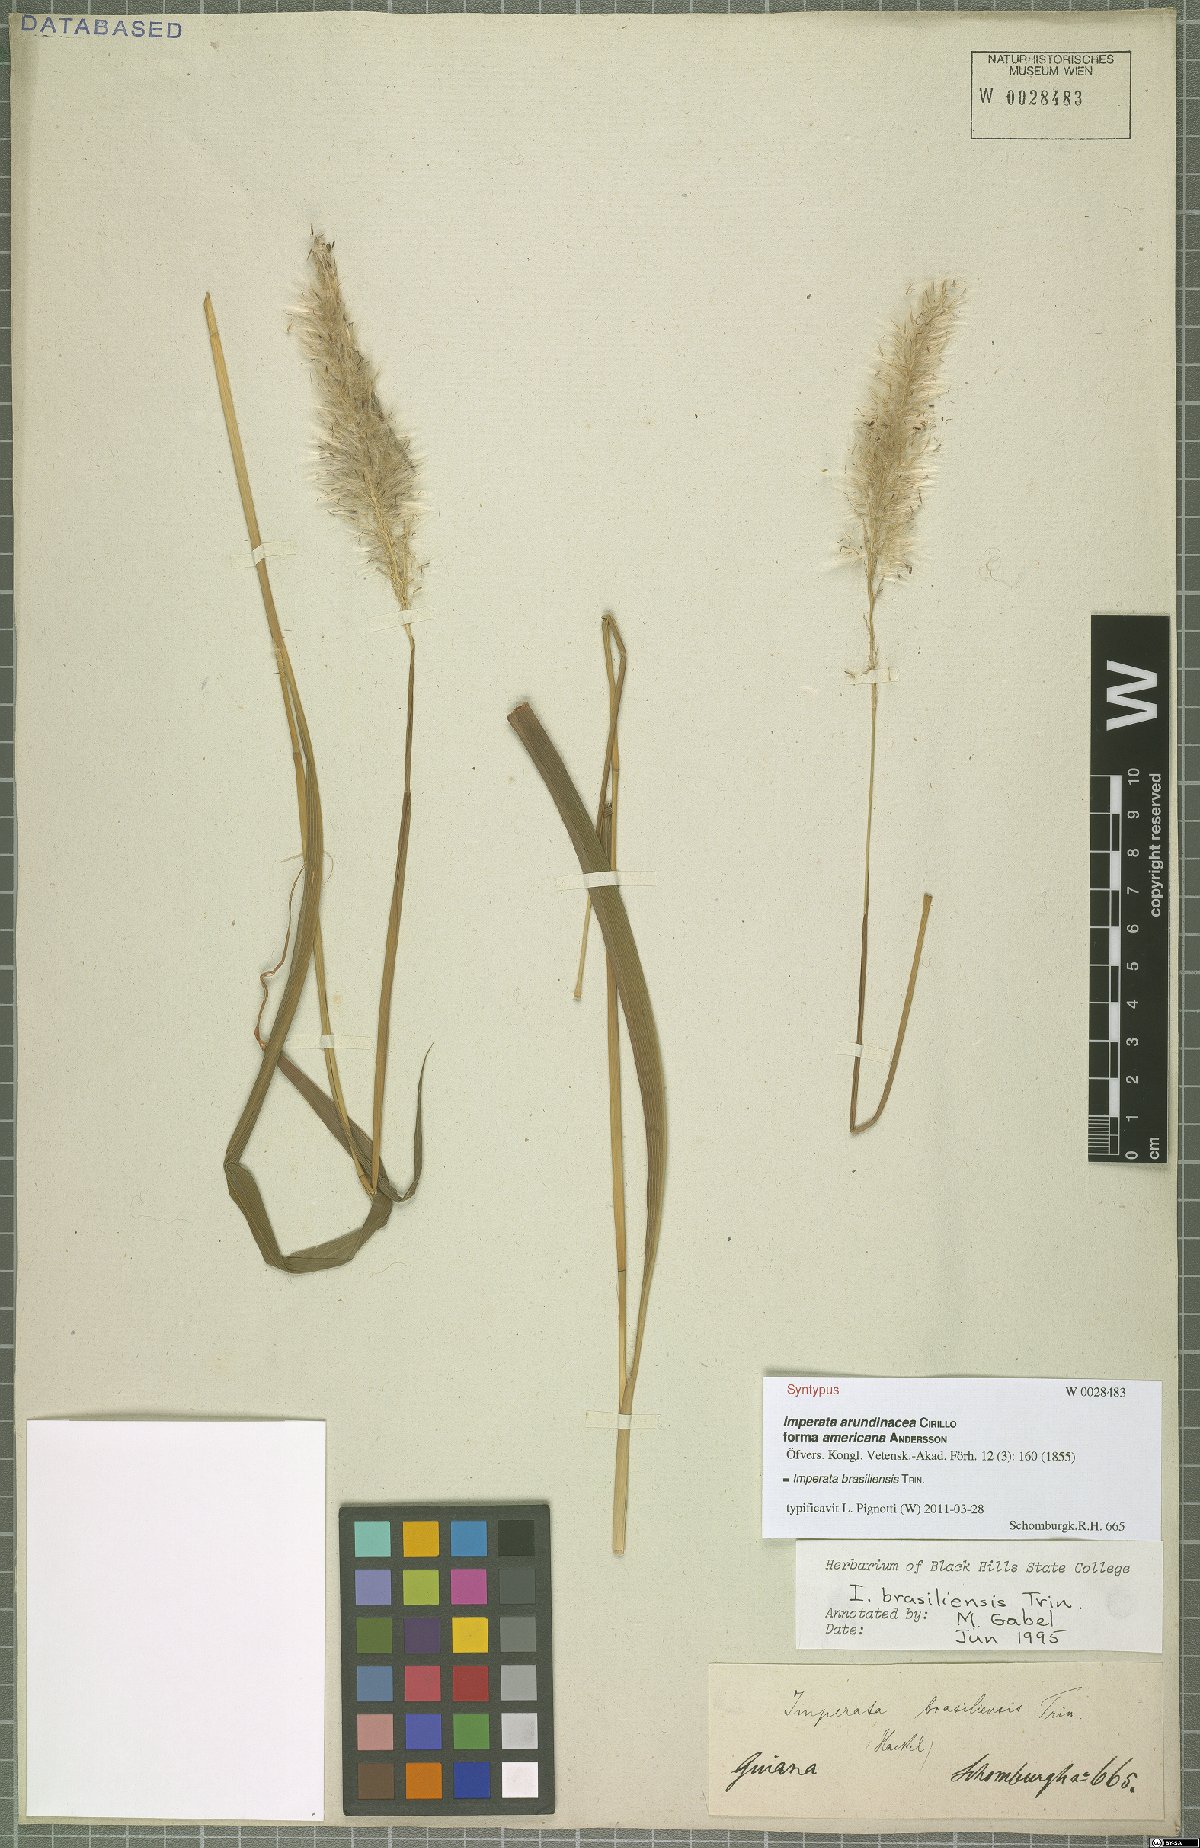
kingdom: Plantae
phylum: Tracheophyta
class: Liliopsida
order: Poales
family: Poaceae
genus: Imperata
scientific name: Imperata brasiliensis
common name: Brazilian satintail
